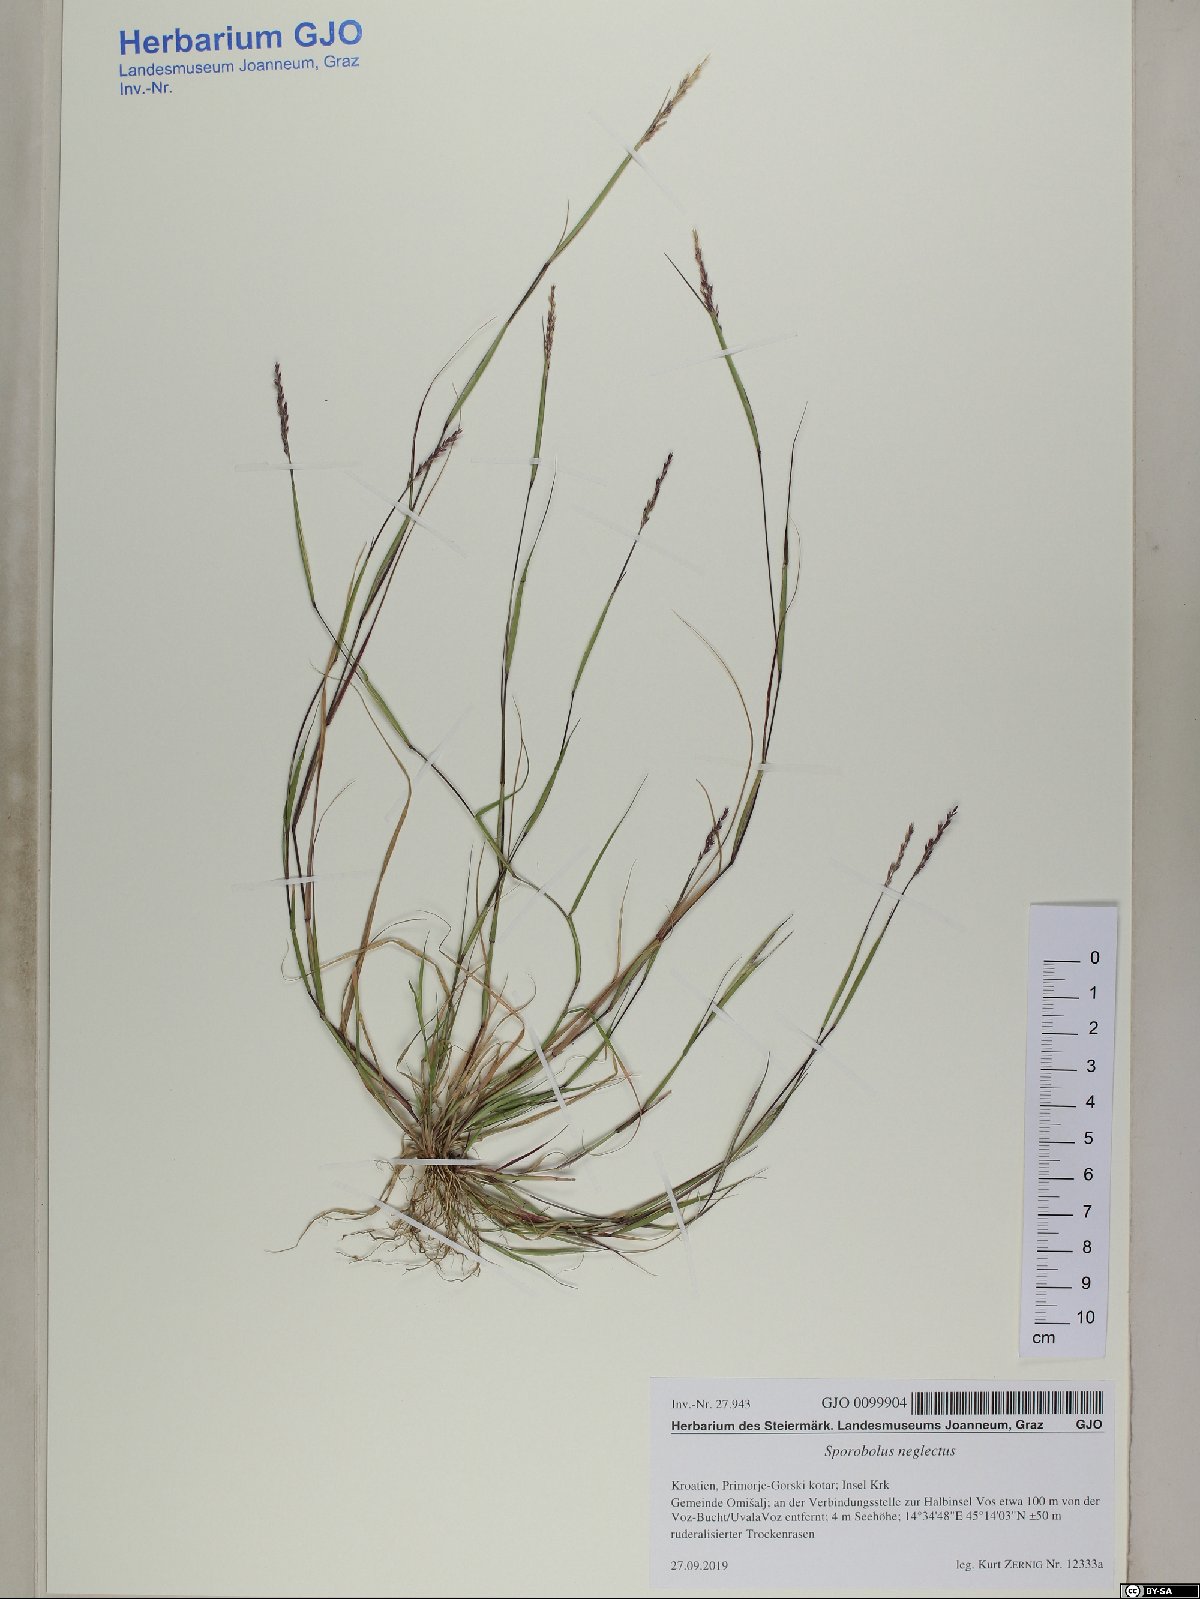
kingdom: Plantae
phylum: Tracheophyta
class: Liliopsida
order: Poales
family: Poaceae
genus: Sporobolus
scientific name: Sporobolus neglectus
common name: Annual dropseed
